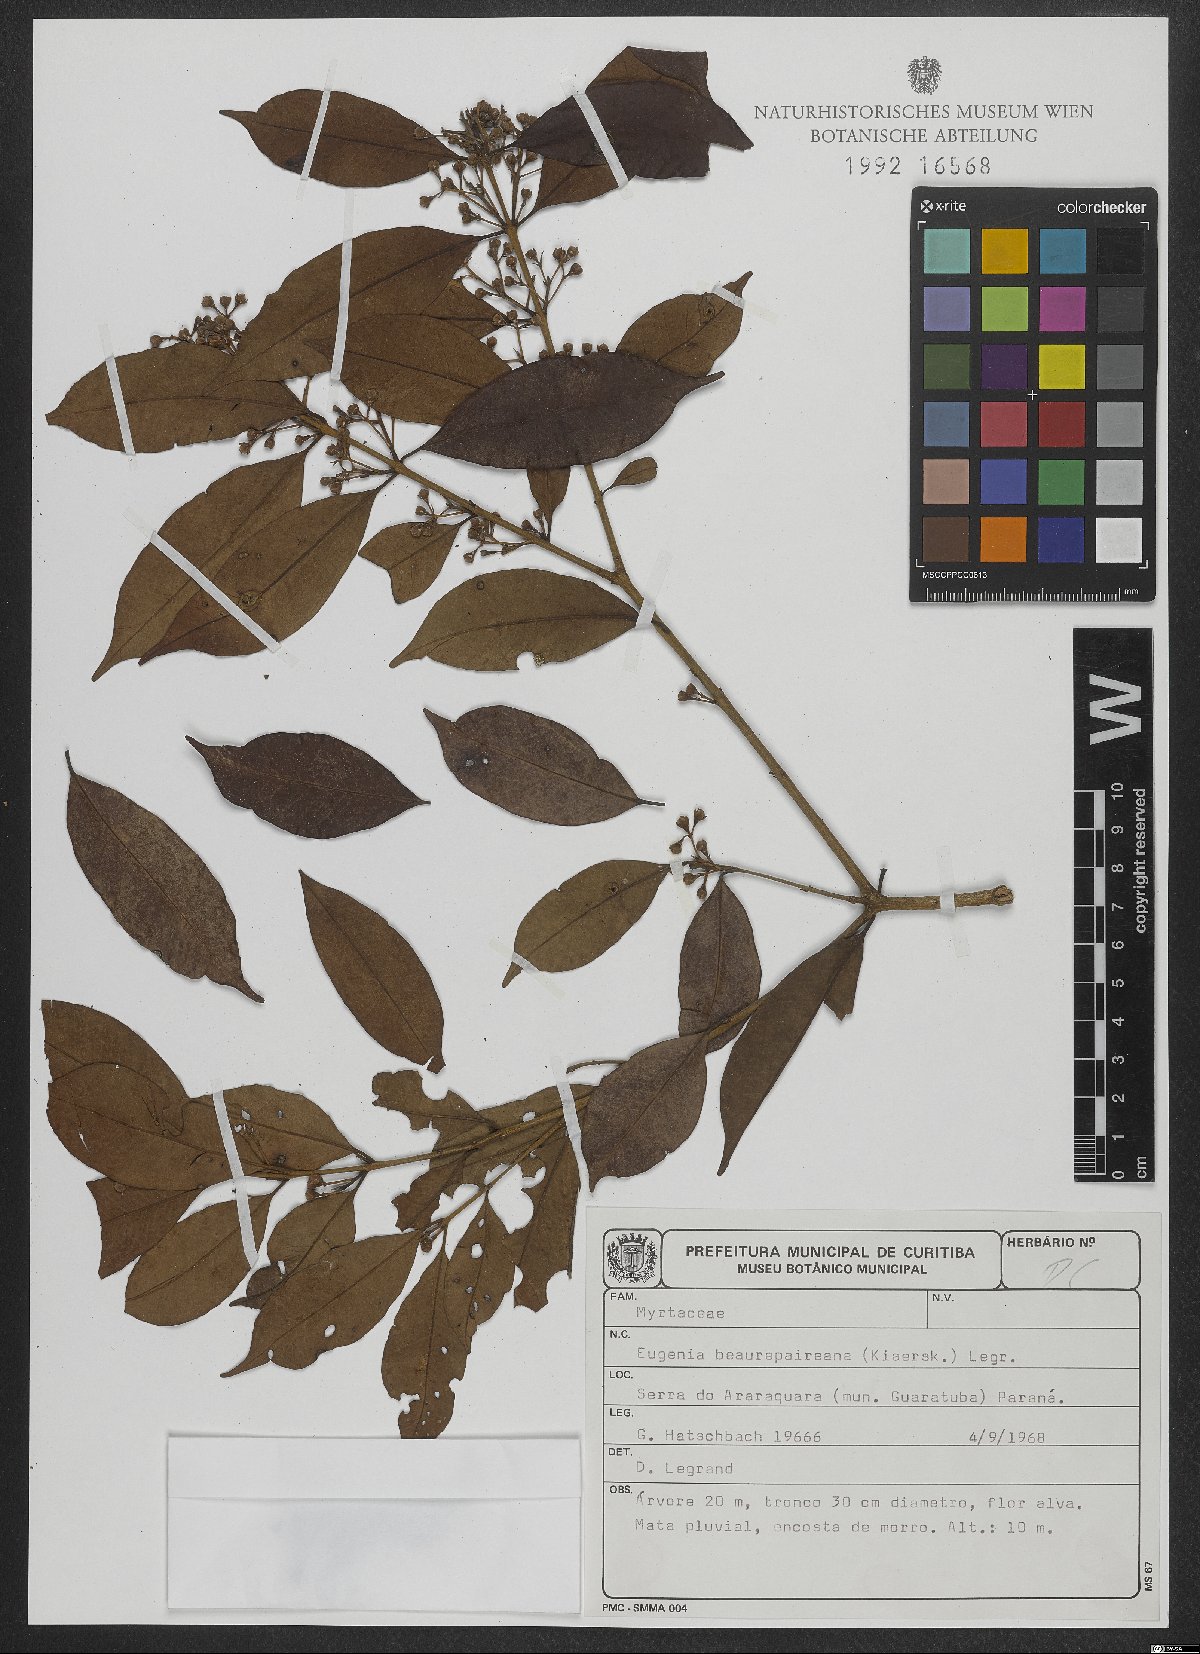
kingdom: Plantae
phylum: Tracheophyta
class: Magnoliopsida
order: Myrtales
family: Myrtaceae
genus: Eugenia
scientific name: Eugenia ternatifolia
